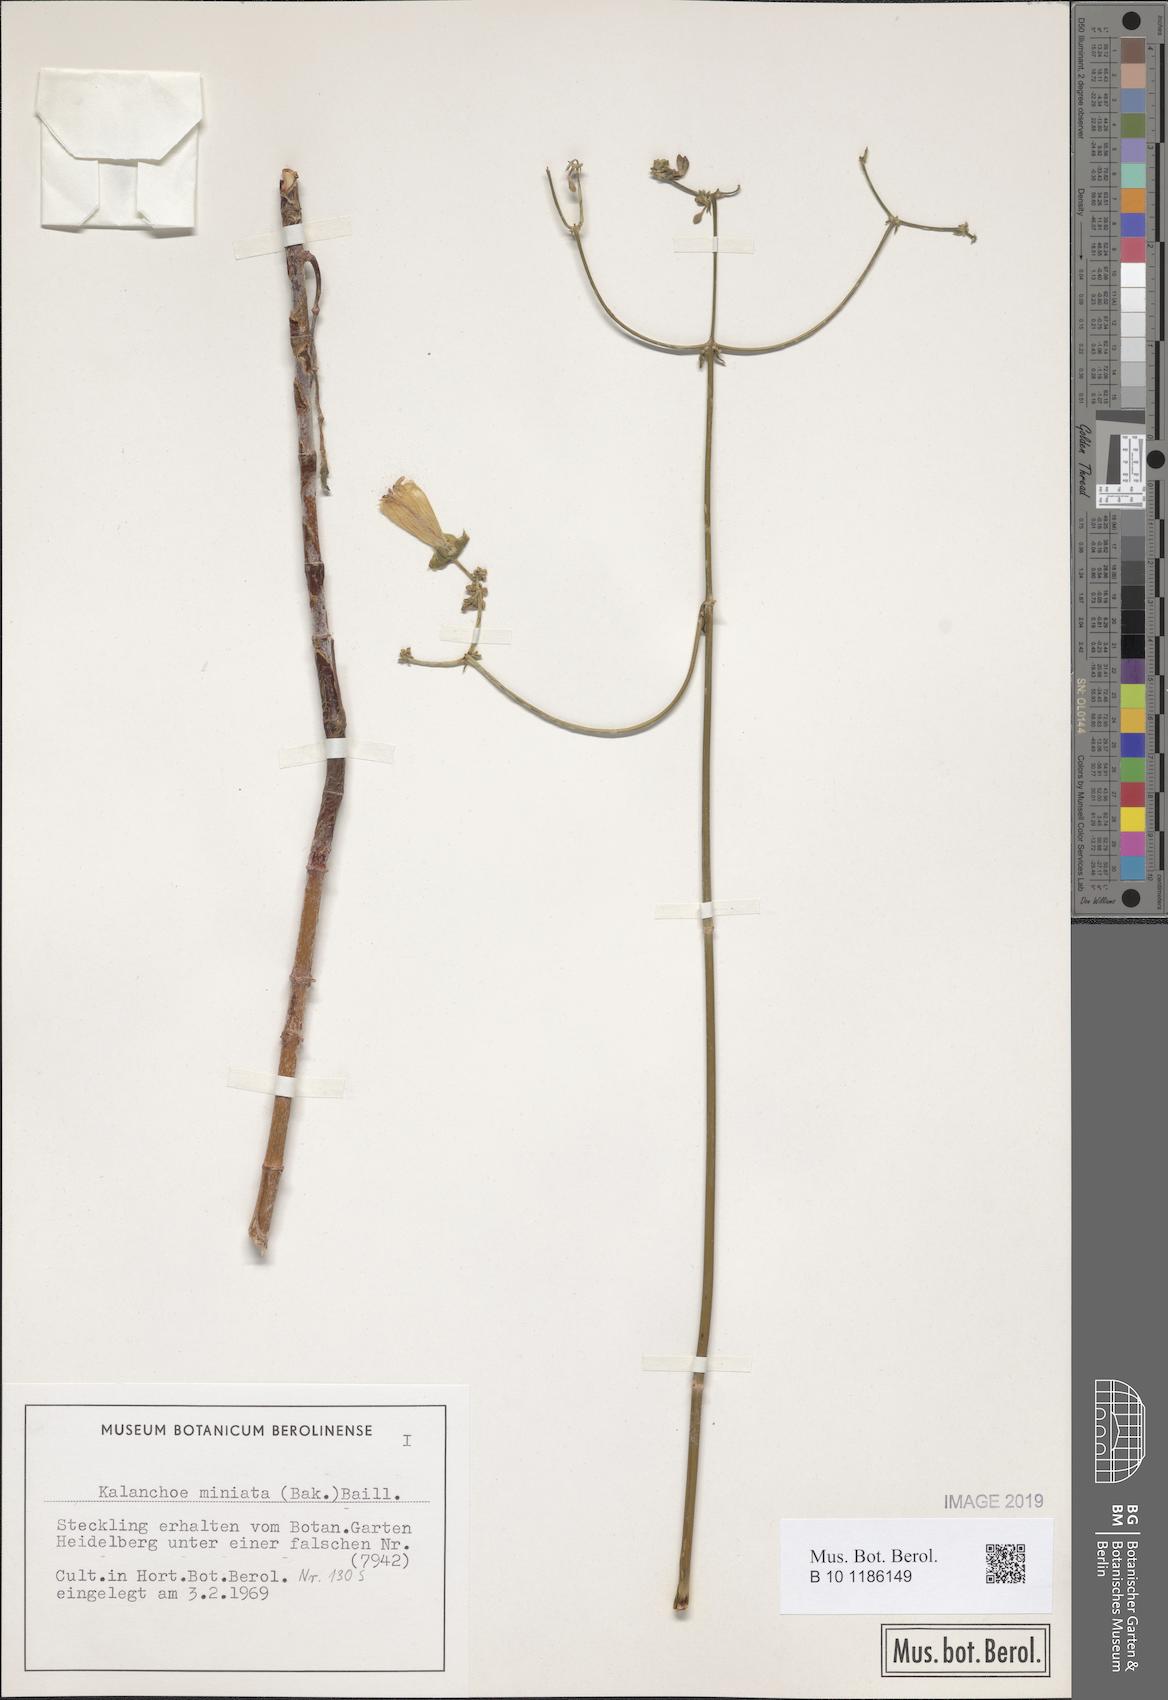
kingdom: Plantae
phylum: Tracheophyta
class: Magnoliopsida
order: Saxifragales
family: Crassulaceae
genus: Kalanchoe
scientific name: Kalanchoe miniata
